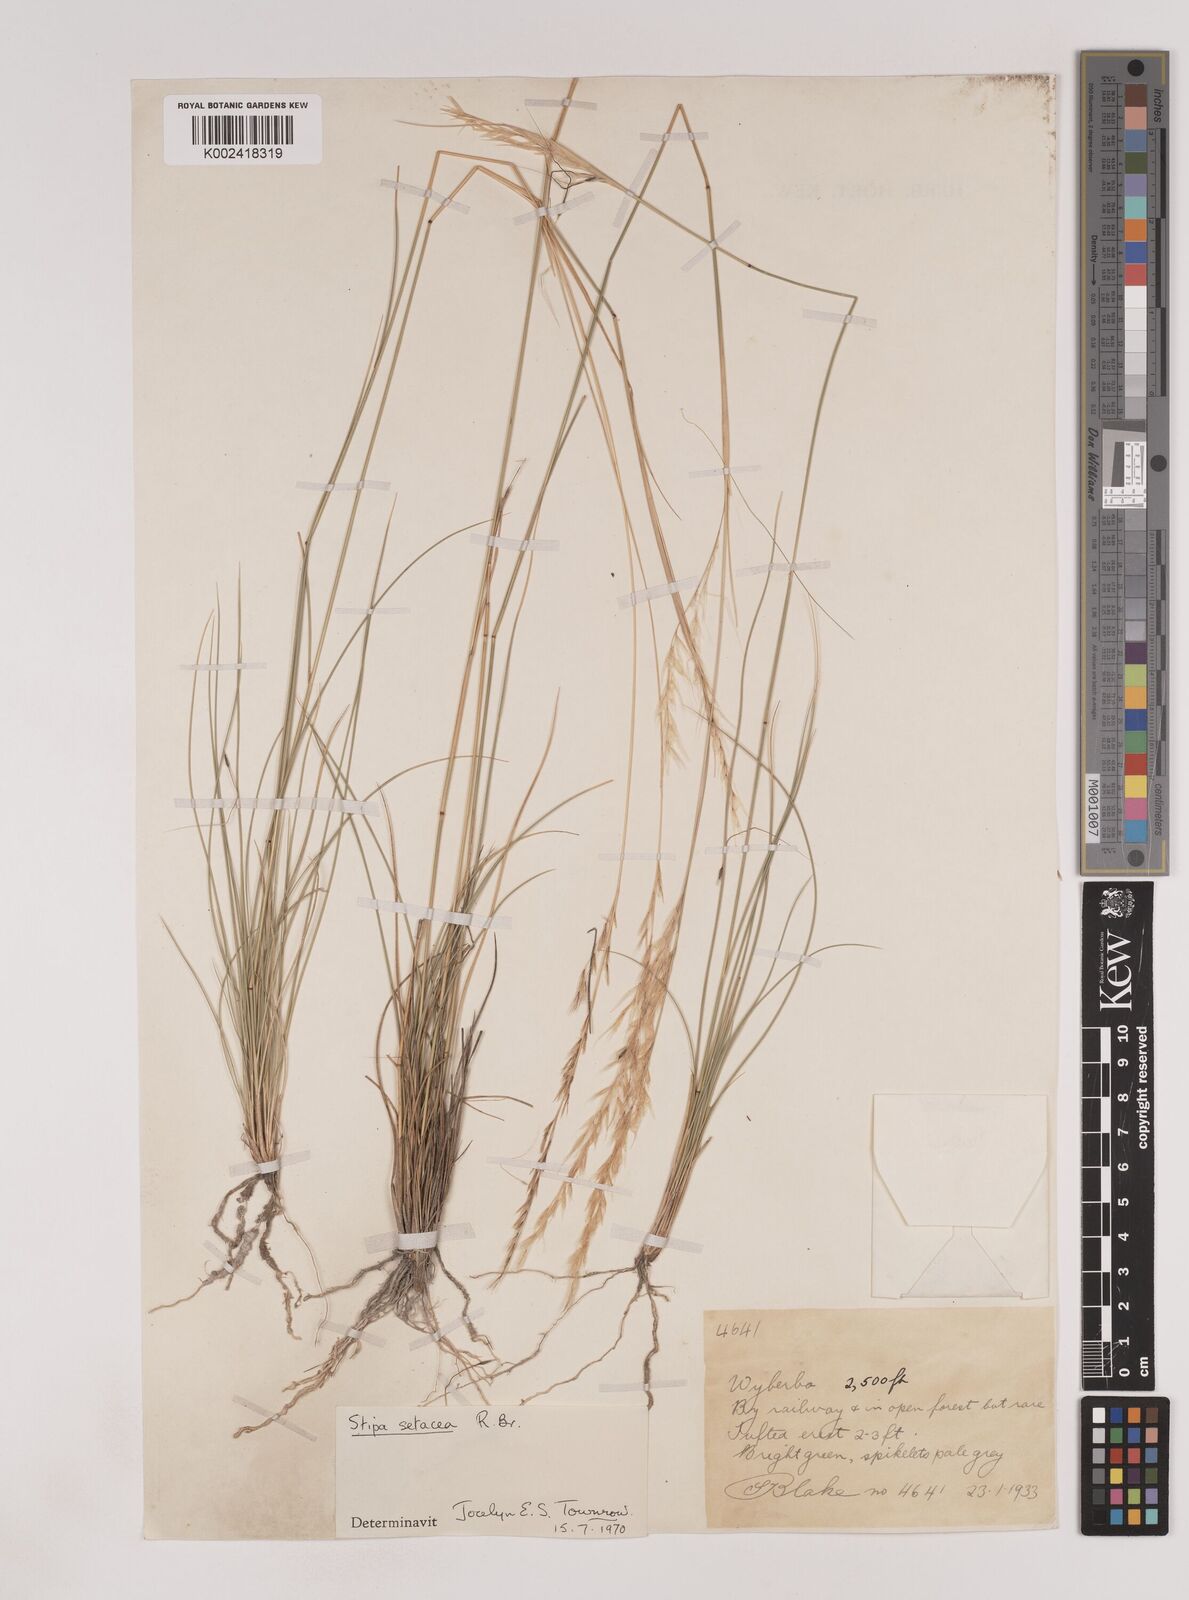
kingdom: Plantae
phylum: Tracheophyta
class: Liliopsida
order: Poales
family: Poaceae
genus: Piptochaetium
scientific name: Piptochaetium
